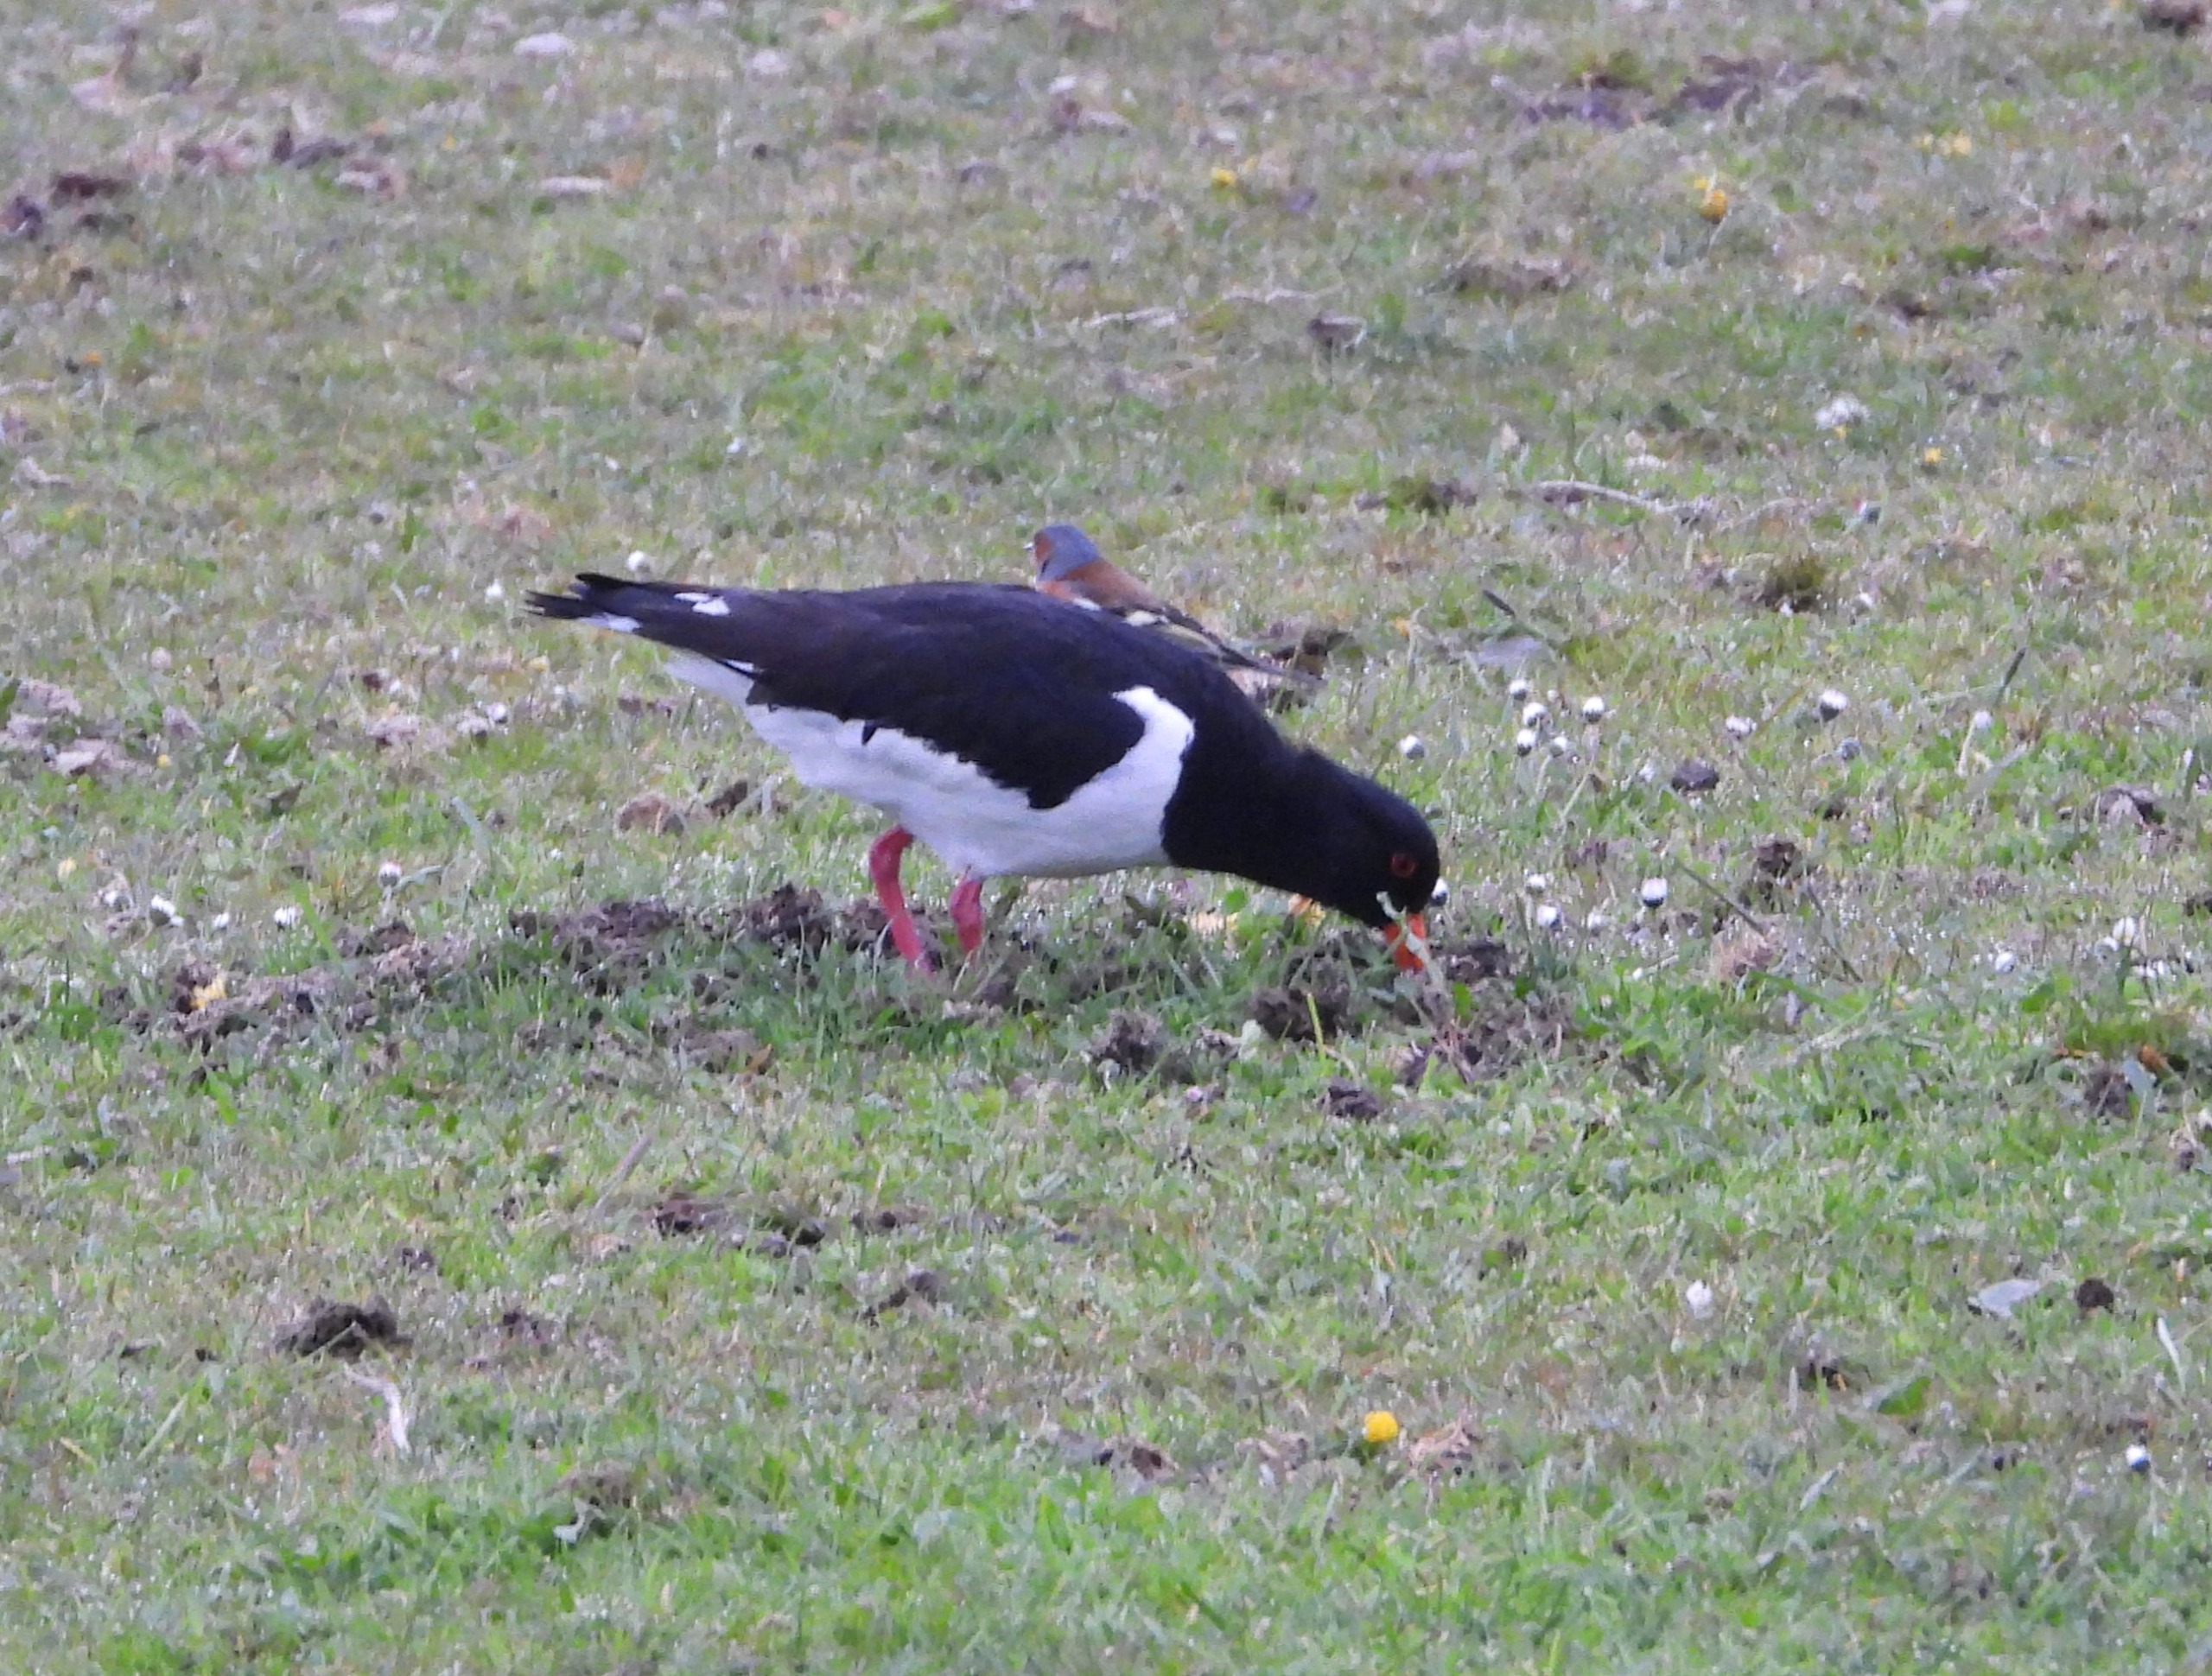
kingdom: Animalia
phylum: Chordata
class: Aves
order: Charadriiformes
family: Haematopodidae
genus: Haematopus
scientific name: Haematopus ostralegus
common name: Strandskade
